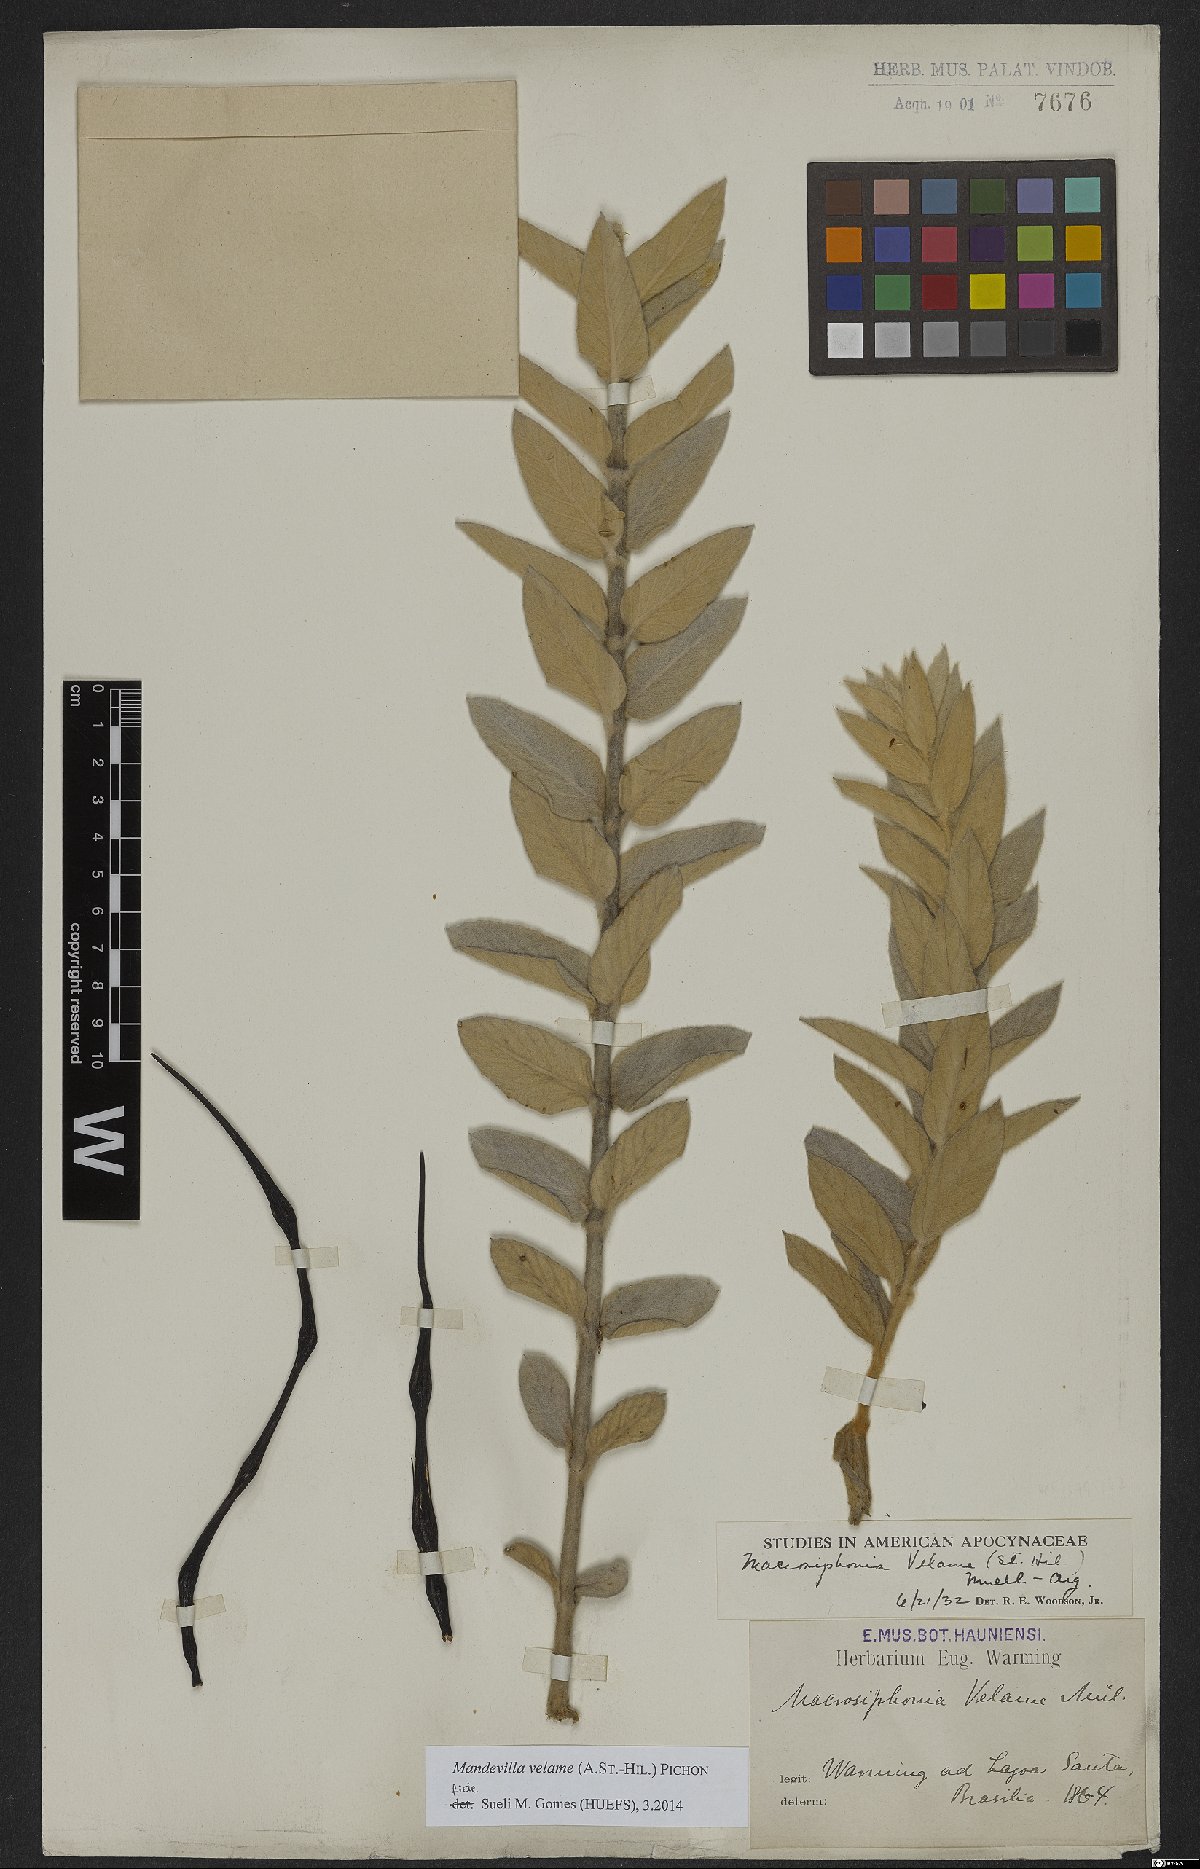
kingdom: Plantae
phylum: Tracheophyta
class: Magnoliopsida
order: Gentianales
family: Apocynaceae
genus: Mandevilla
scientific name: Mandevilla velame
